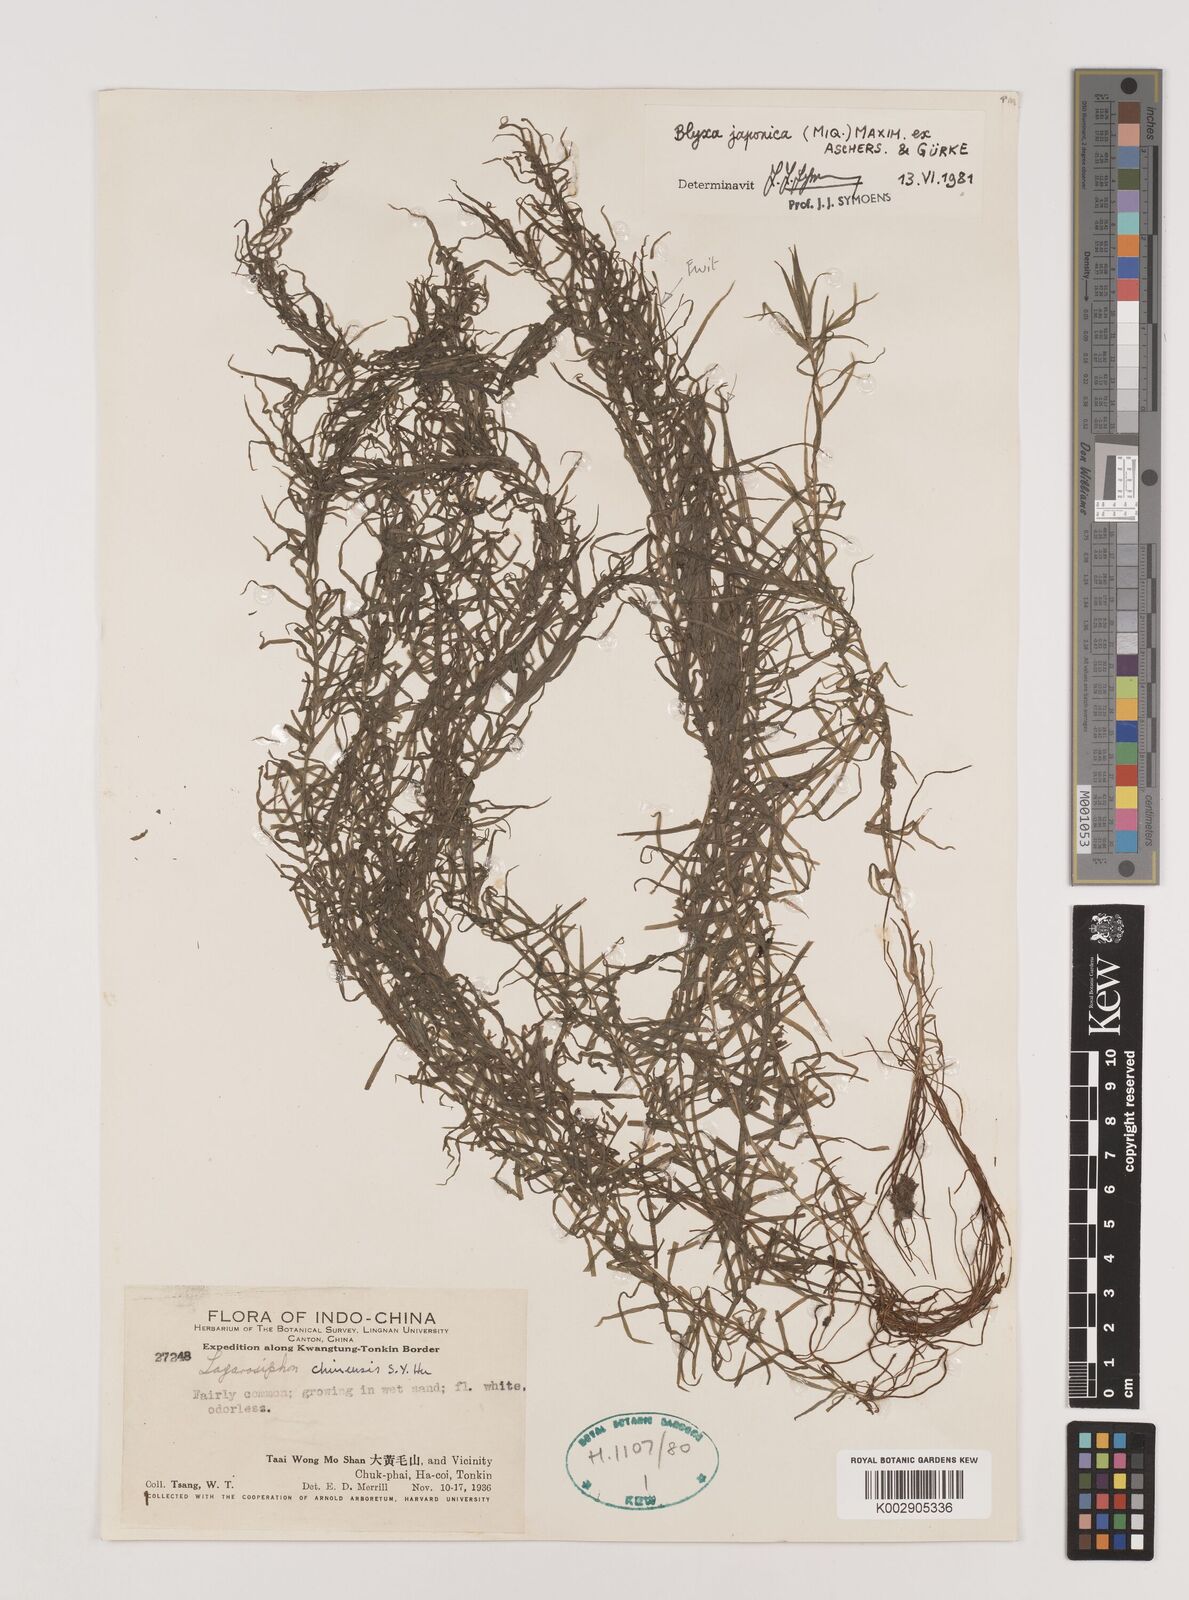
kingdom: Plantae
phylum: Tracheophyta
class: Liliopsida
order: Alismatales
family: Hydrocharitaceae
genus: Blyxa
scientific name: Blyxa japonica
